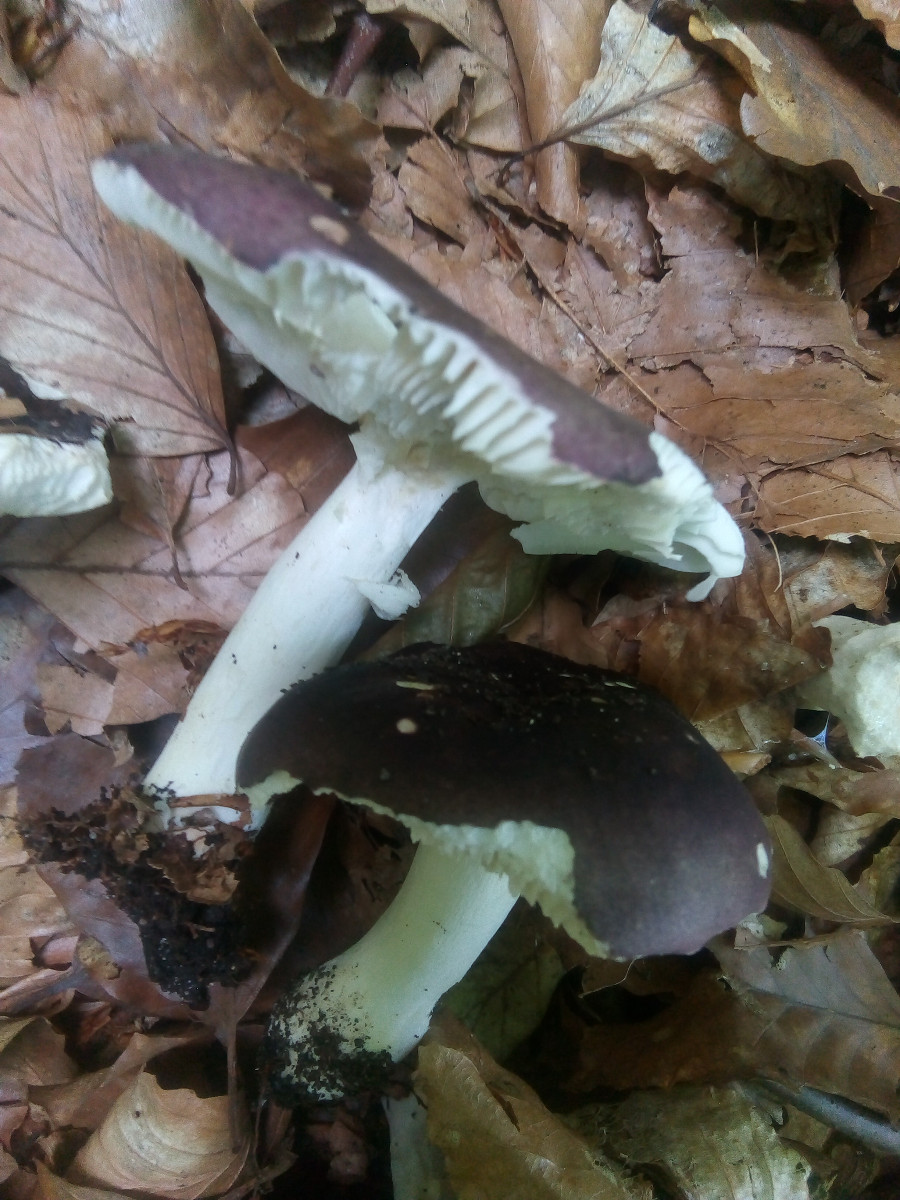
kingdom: Fungi
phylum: Basidiomycota
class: Agaricomycetes
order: Russulales
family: Russulaceae
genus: Russula
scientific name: Russula brunneoviolacea
